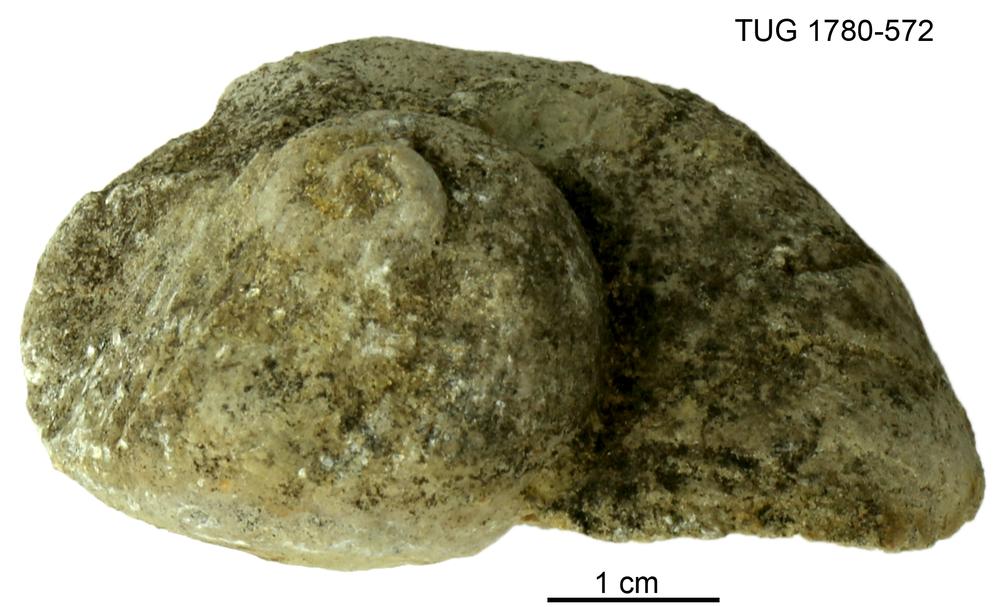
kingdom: Animalia
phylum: Mollusca
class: Gastropoda
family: Holopeidae
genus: Holopea
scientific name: Holopea ampullacea
